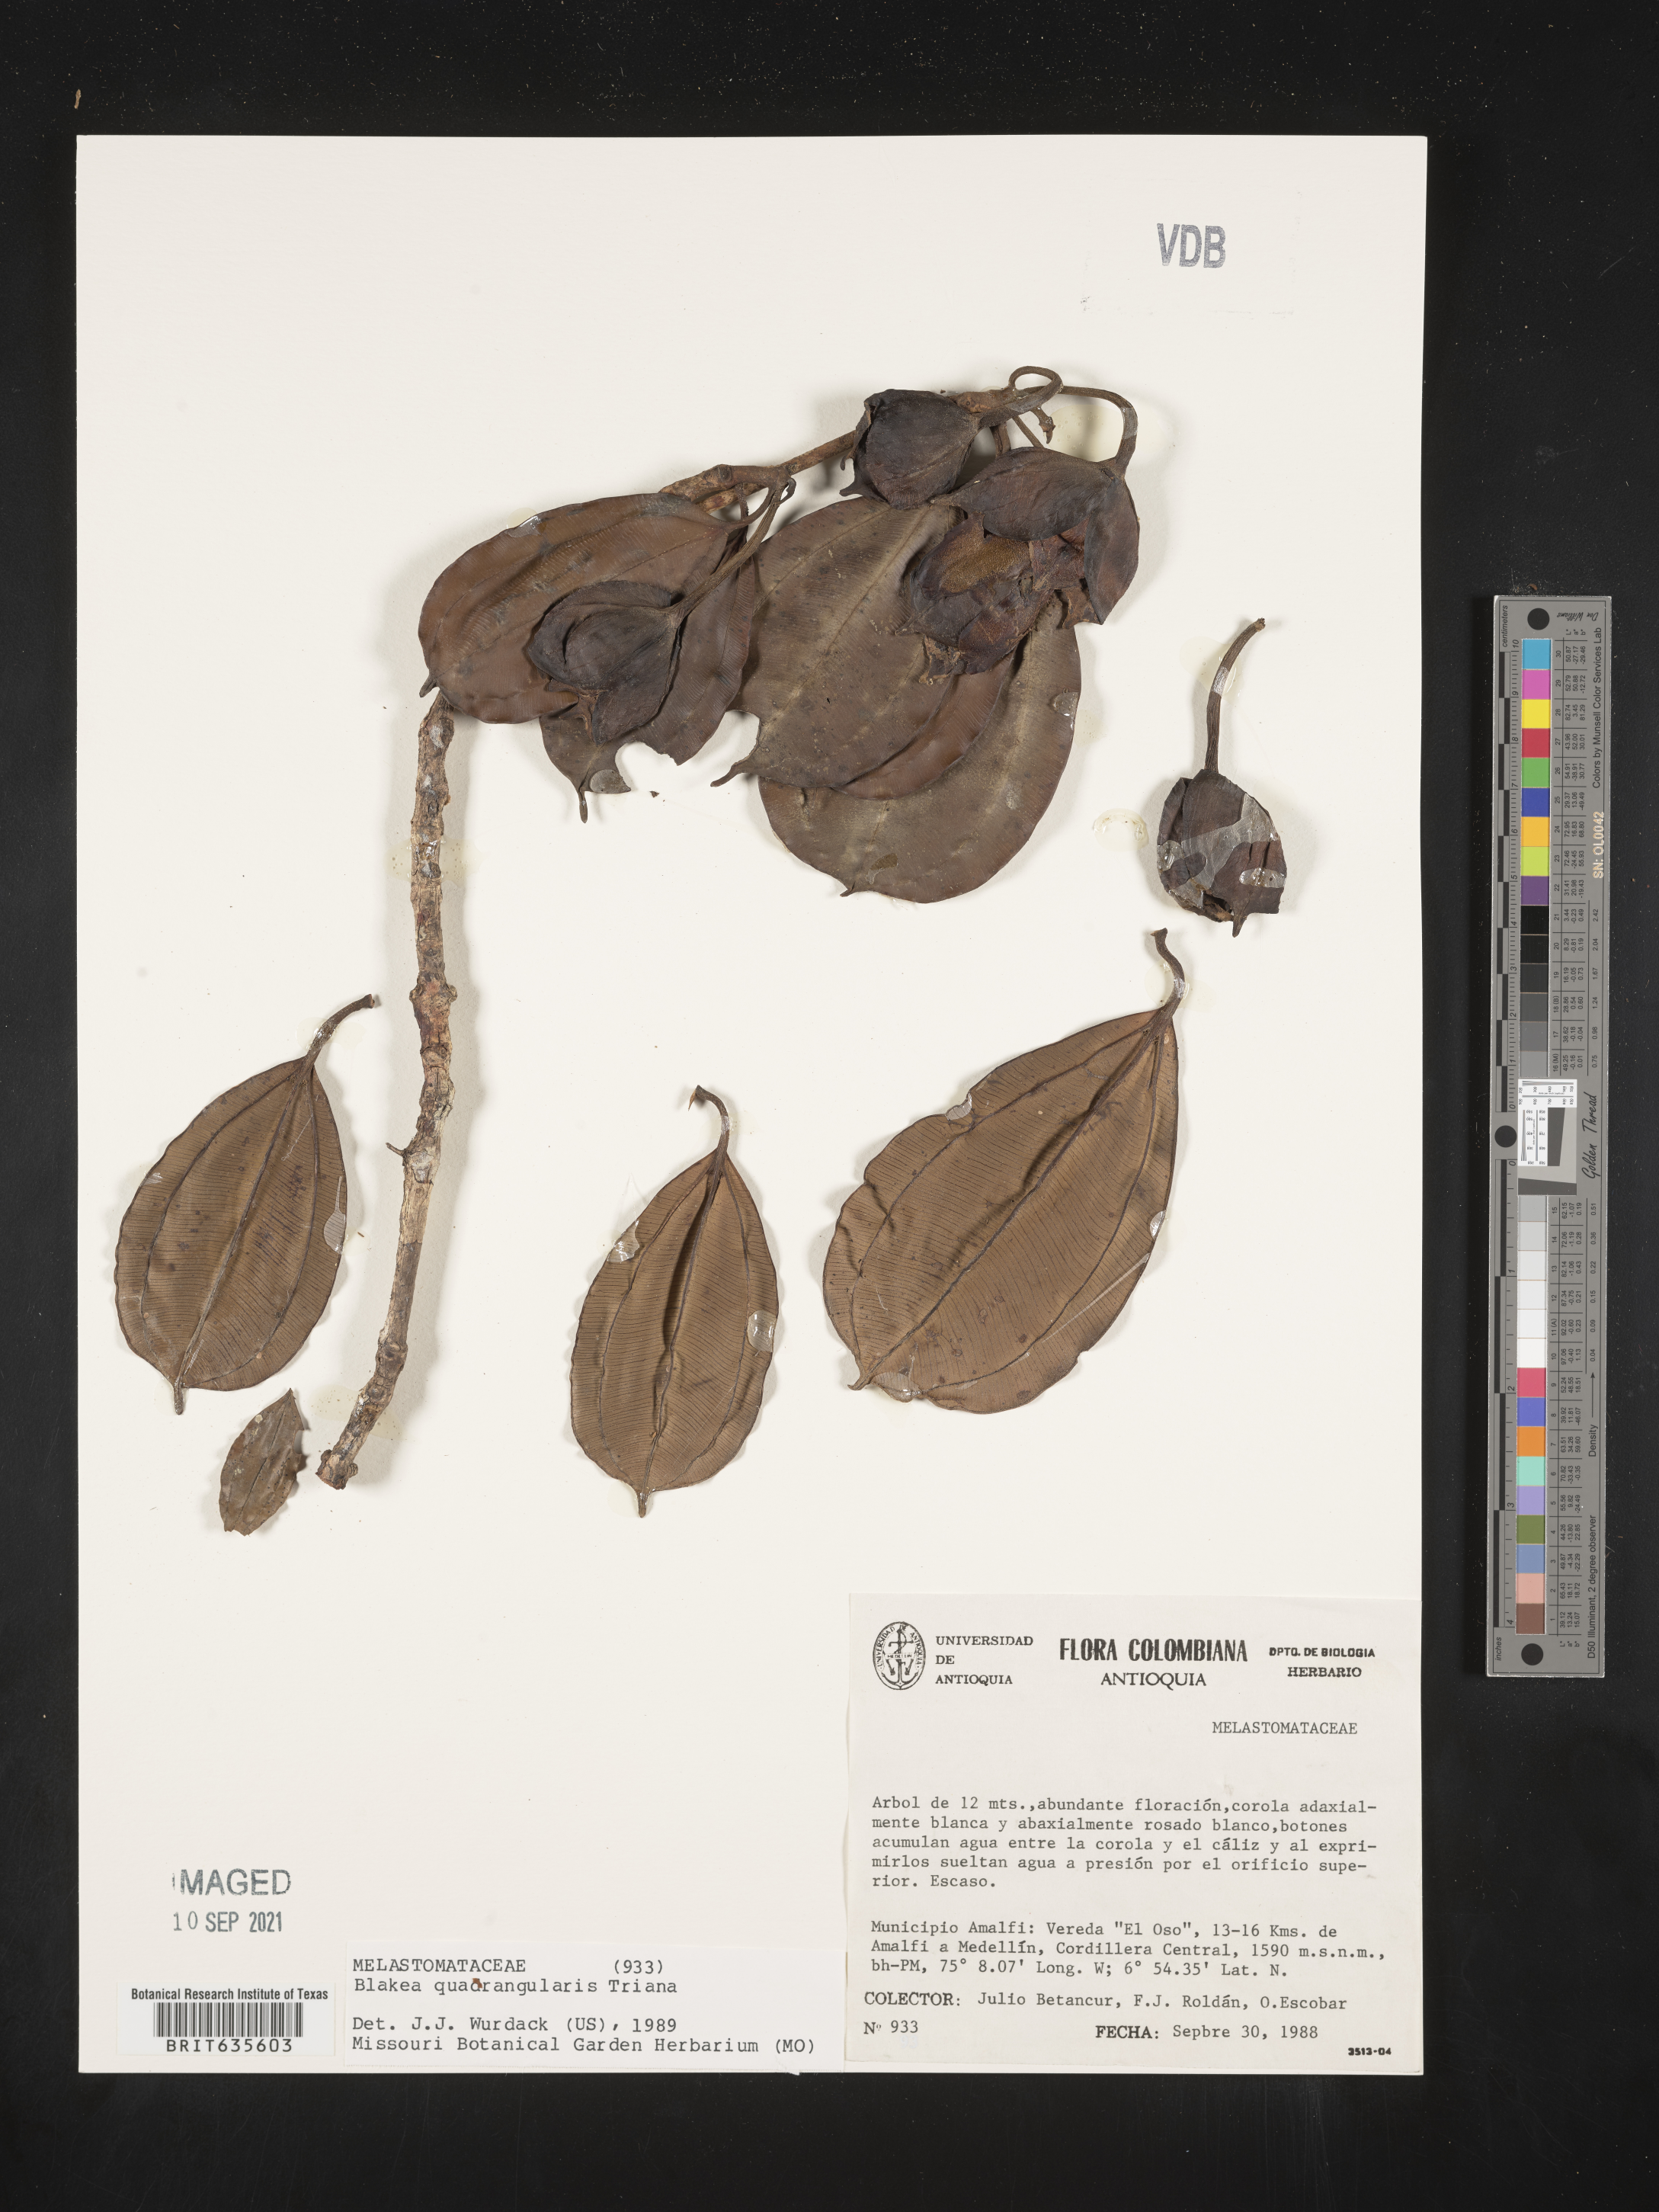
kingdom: Plantae
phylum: Tracheophyta
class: Magnoliopsida
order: Myrtales
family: Melastomataceae
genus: Blakea
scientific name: Blakea
